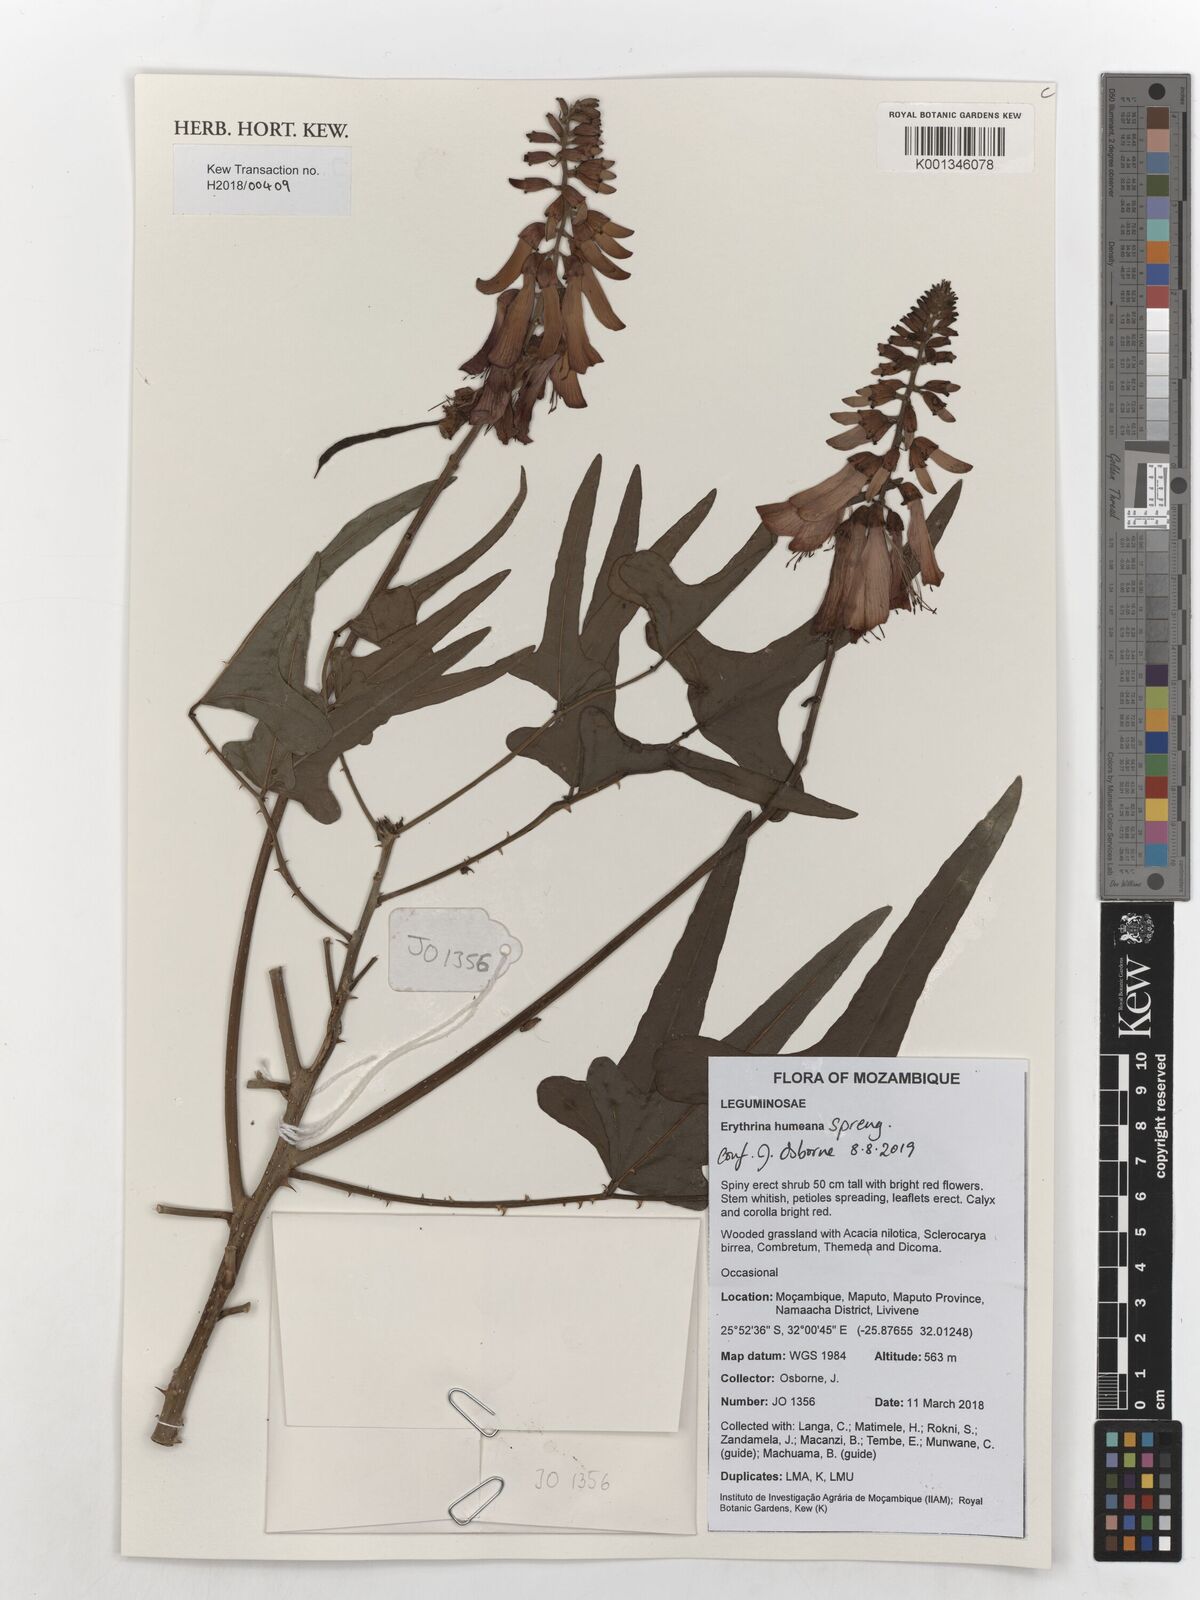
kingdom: Plantae
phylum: Tracheophyta
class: Magnoliopsida
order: Fabales
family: Fabaceae
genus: Erythrina
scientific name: Erythrina humeana
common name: Dwarf coral tree
